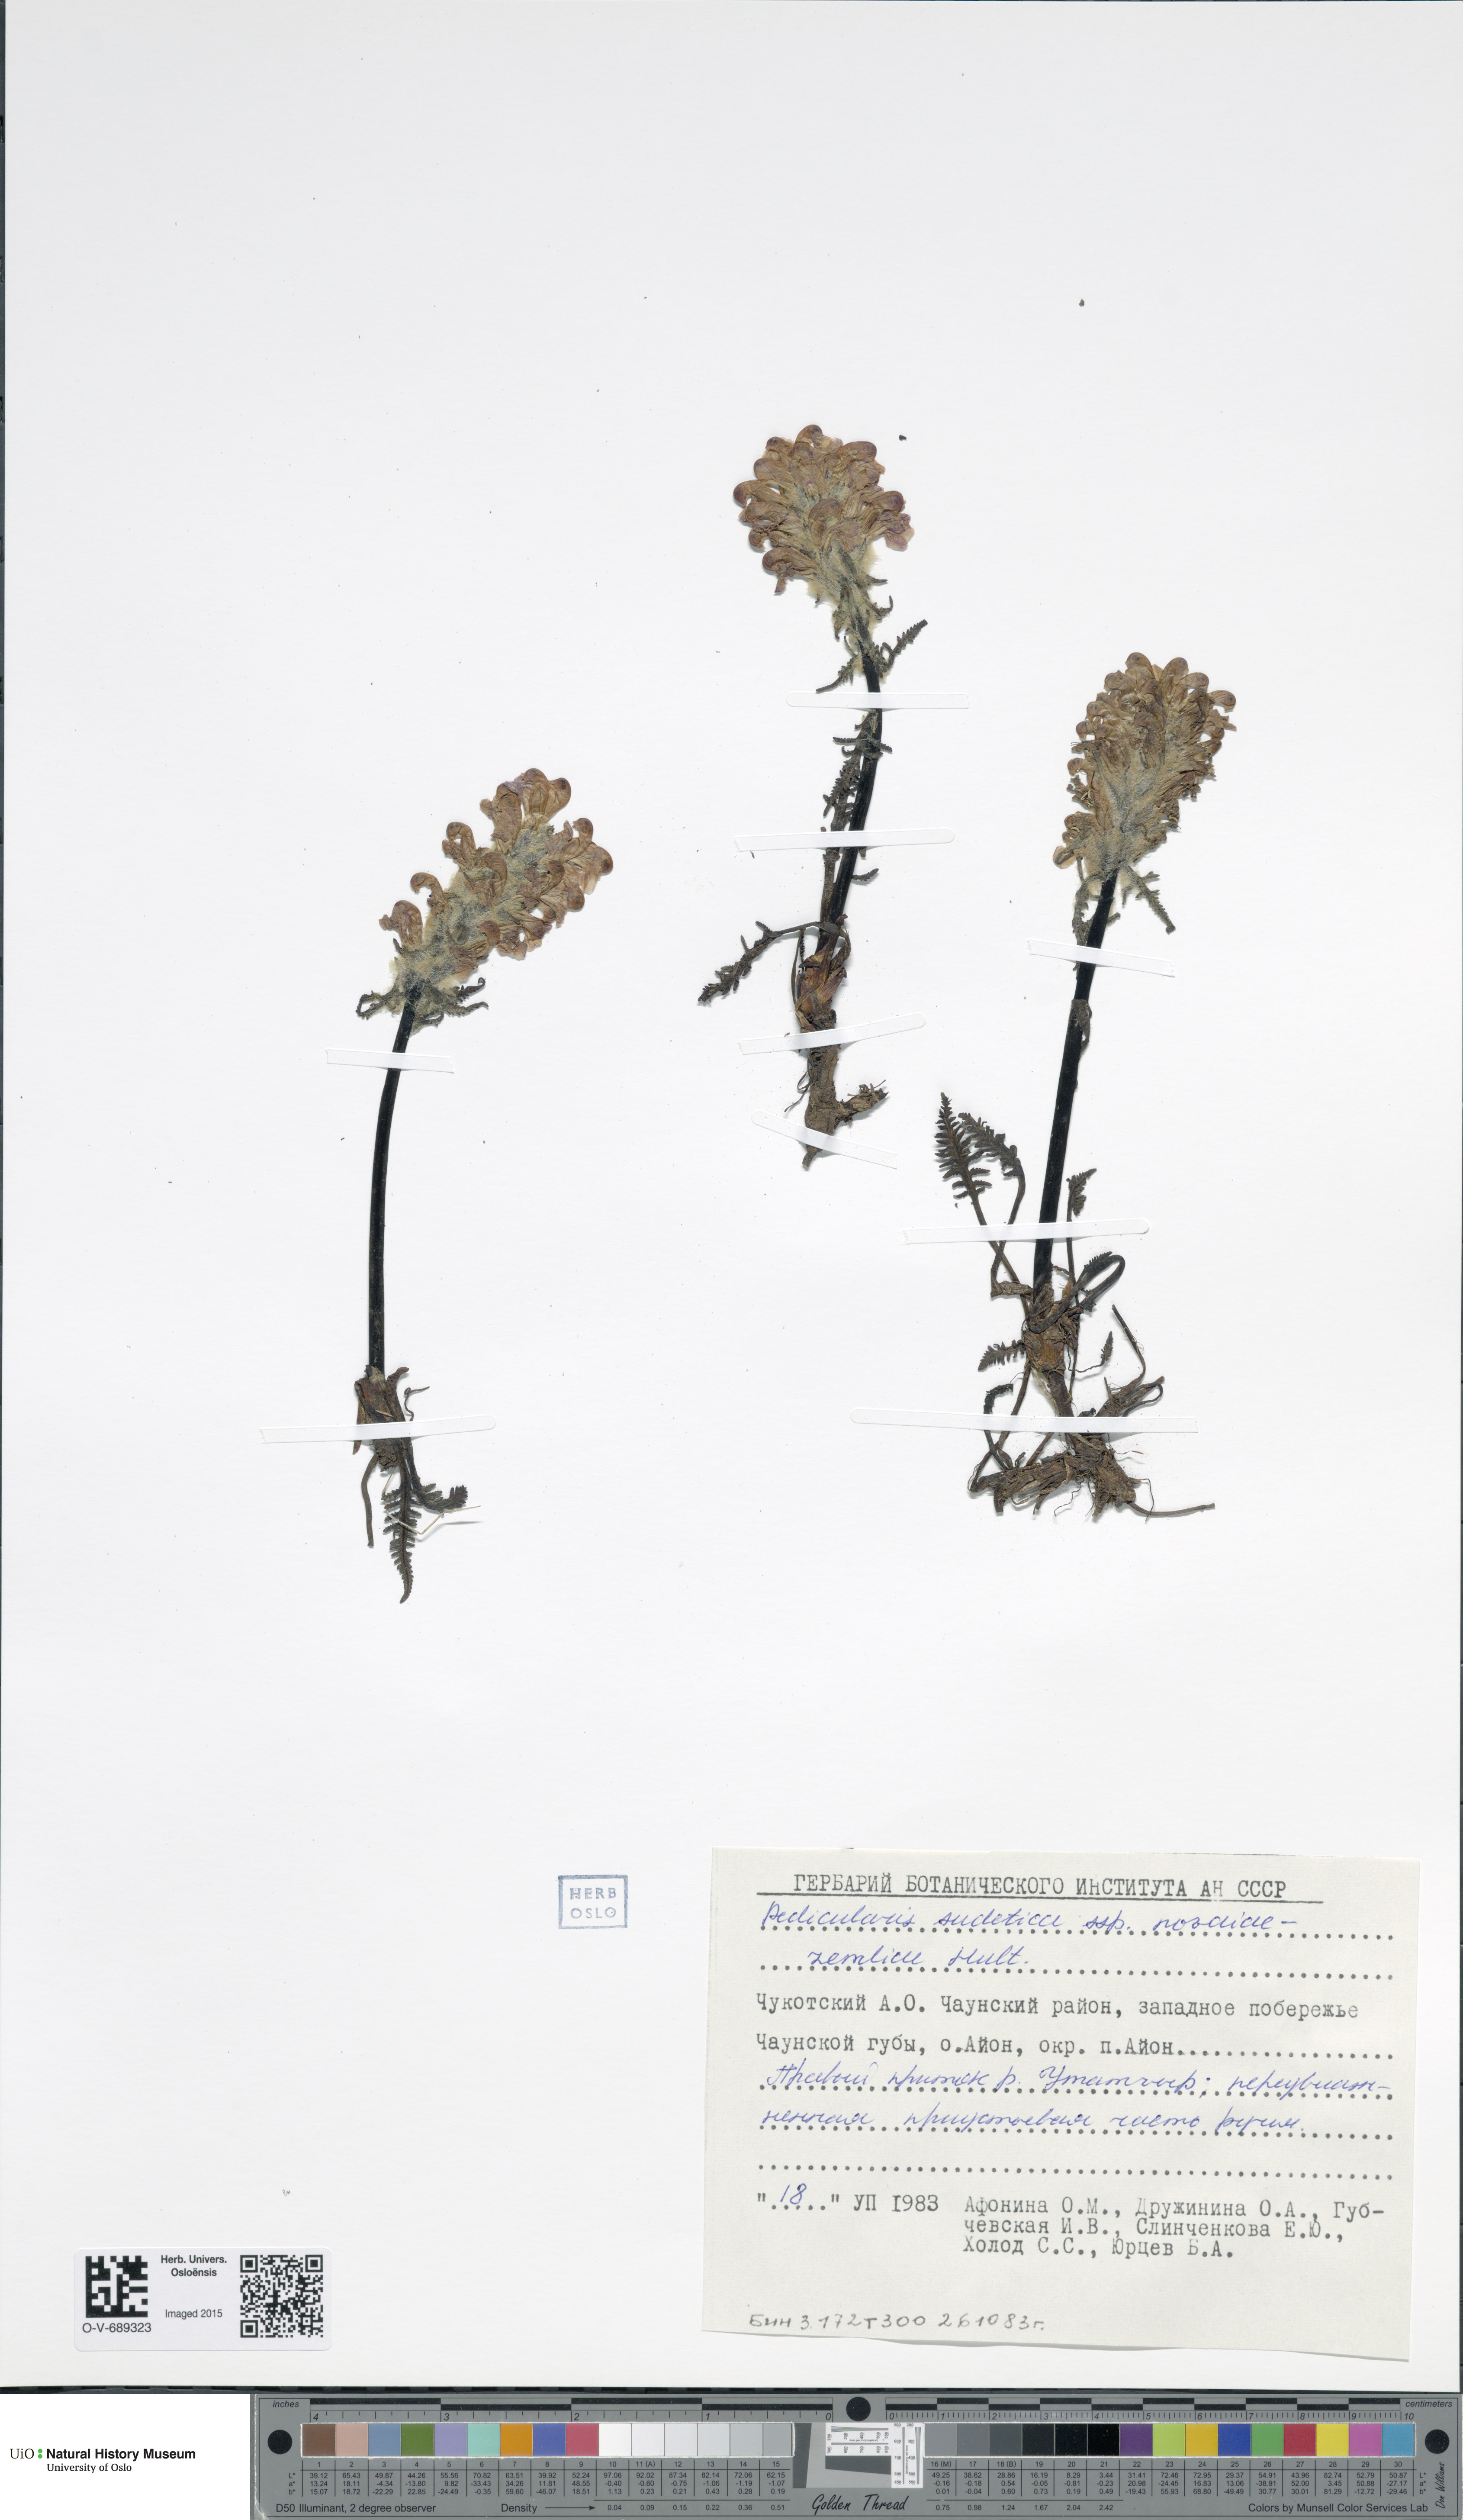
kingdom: Plantae
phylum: Tracheophyta
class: Magnoliopsida
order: Lamiales
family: Orobanchaceae
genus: Pedicularis
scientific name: Pedicularis sudetica
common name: Sudeten lousewort
